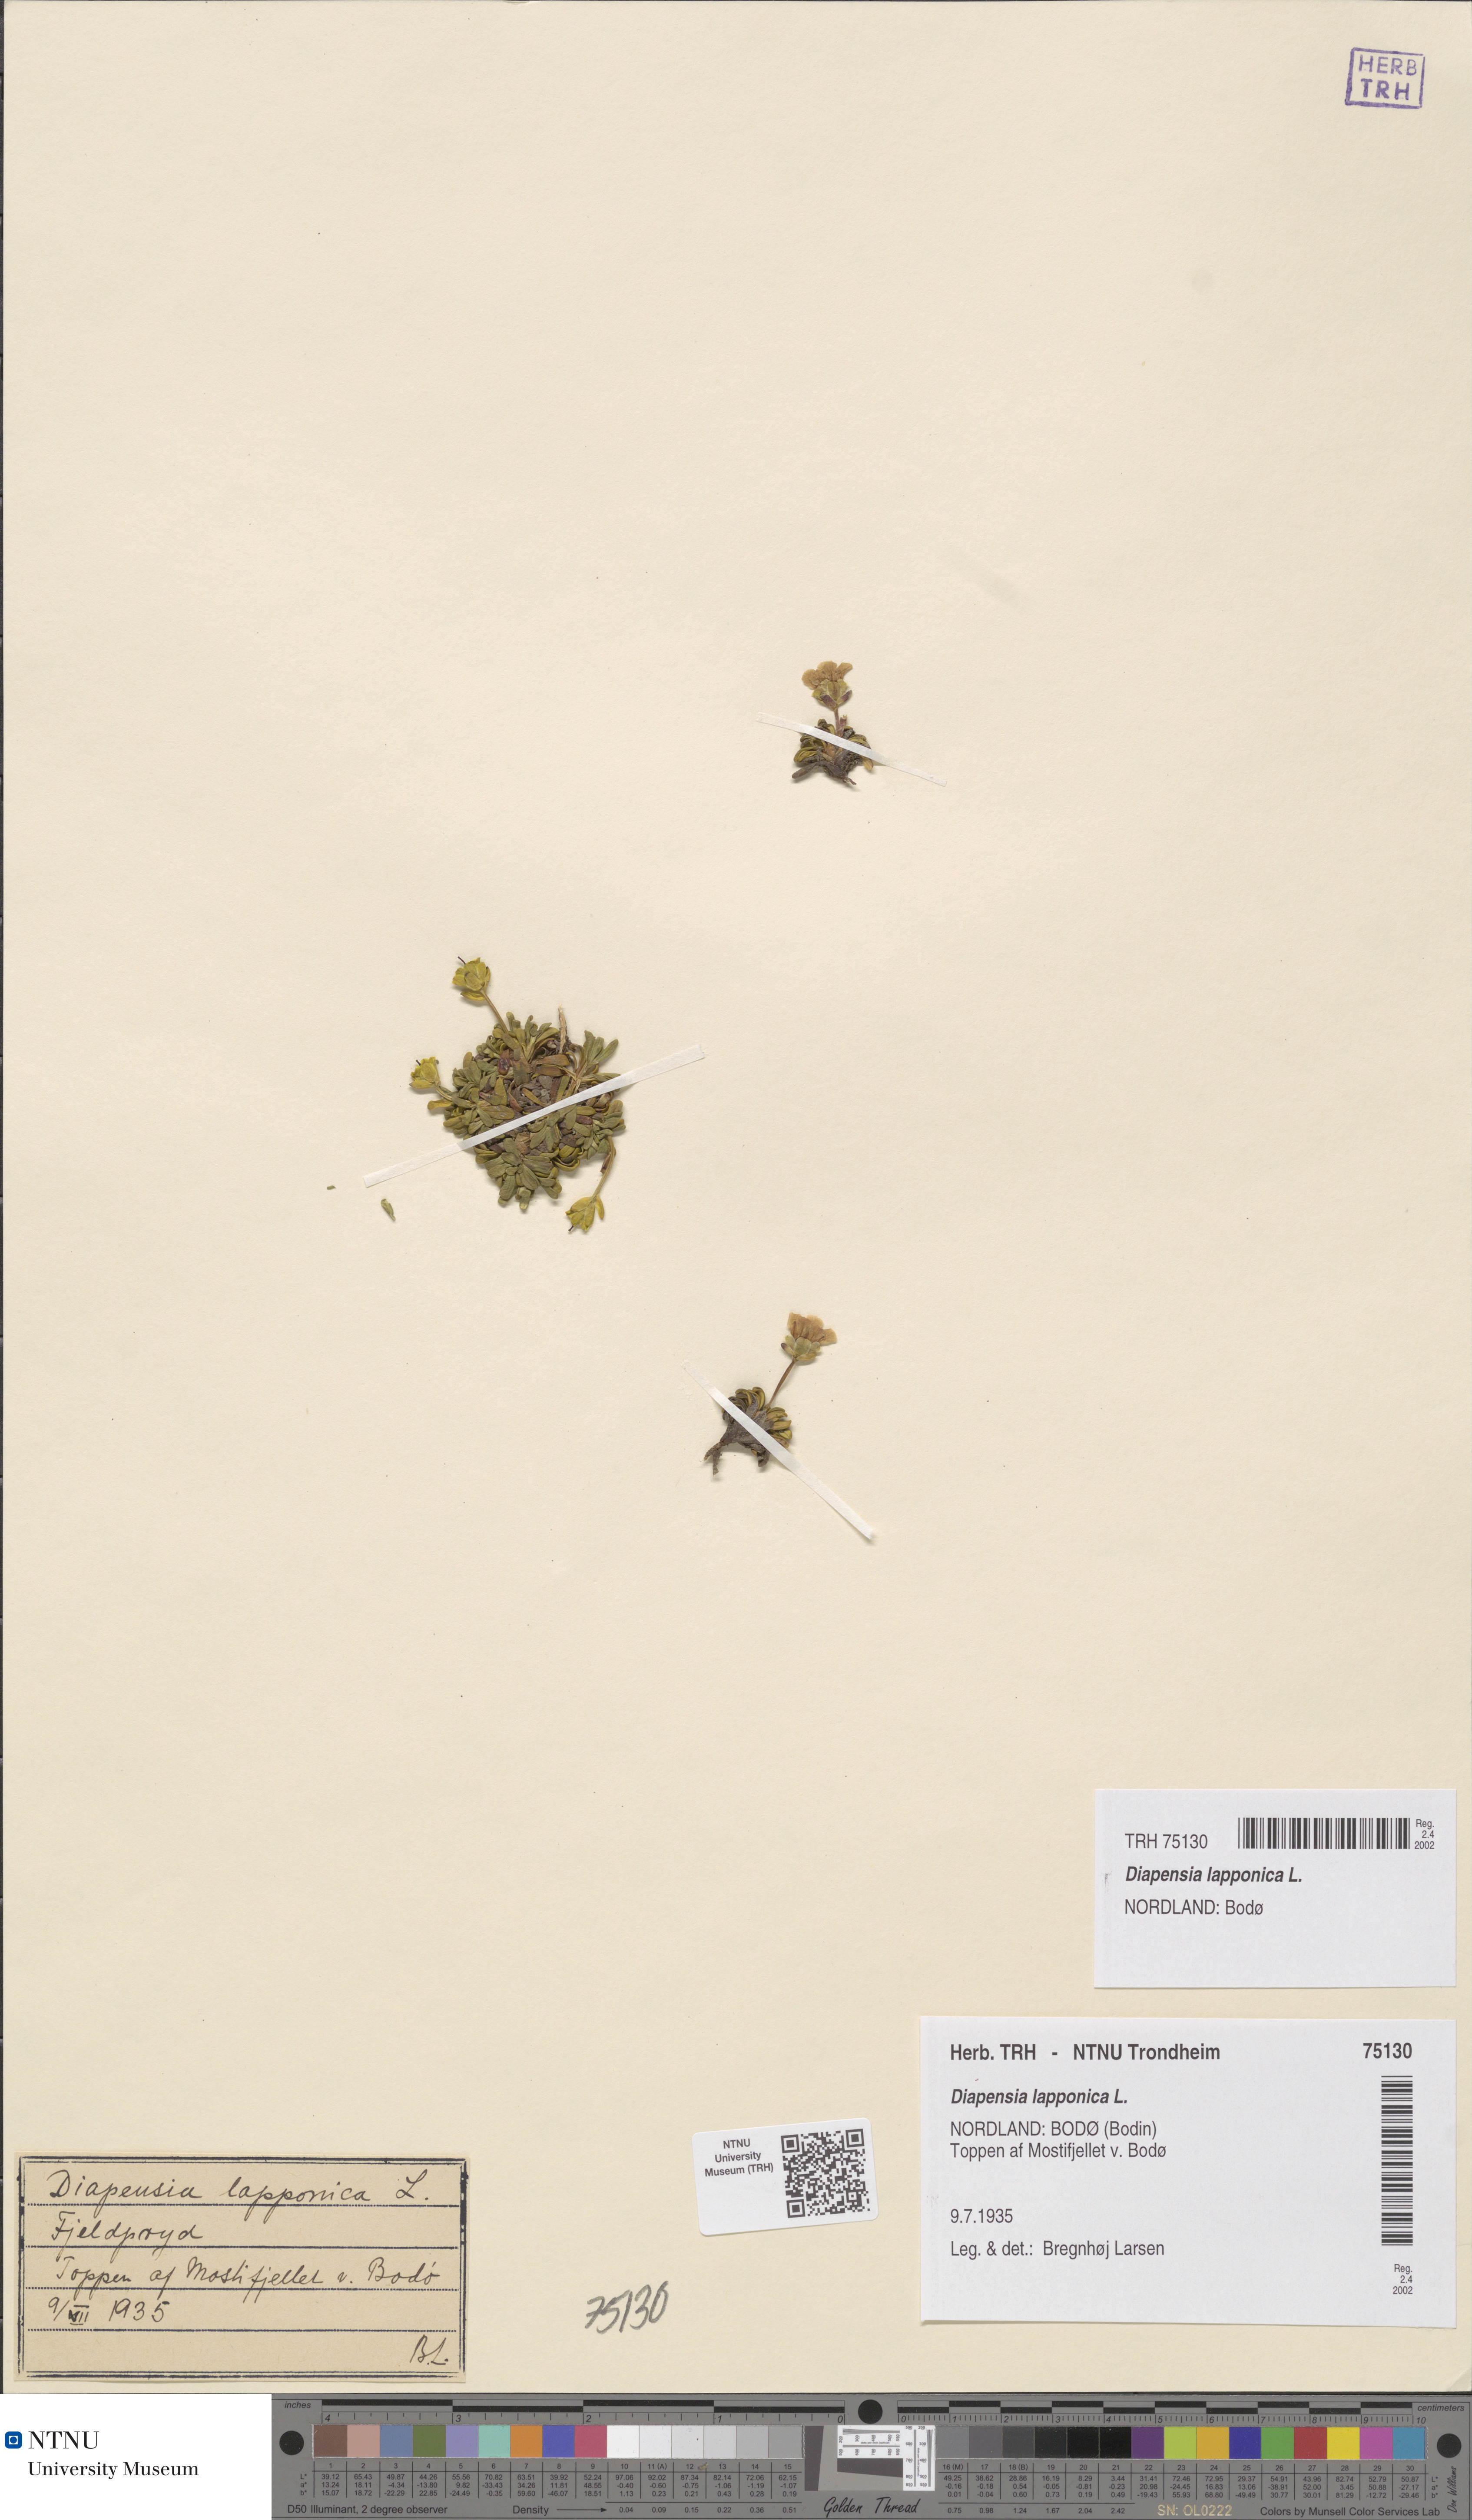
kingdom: Plantae
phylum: Tracheophyta
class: Magnoliopsida
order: Ericales
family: Diapensiaceae
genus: Diapensia
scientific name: Diapensia lapponica
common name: Diapensia
